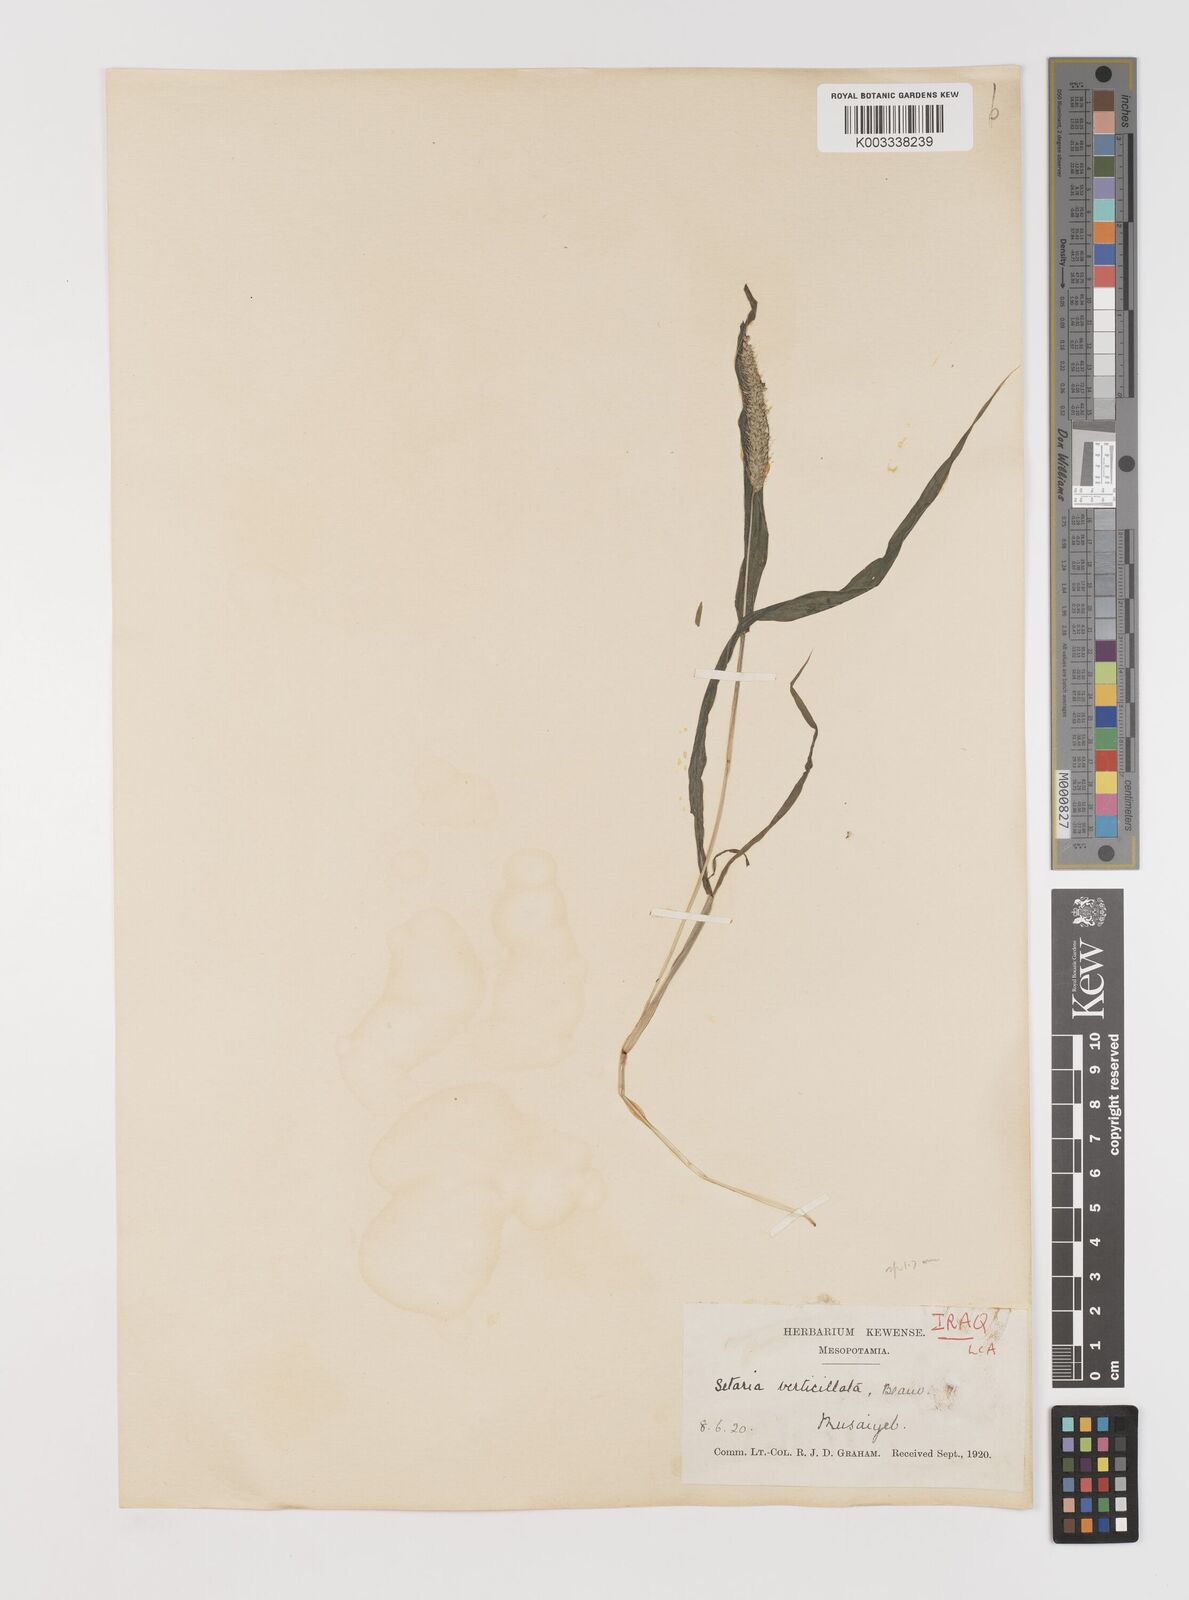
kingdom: Plantae
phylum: Tracheophyta
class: Liliopsida
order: Poales
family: Poaceae
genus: Setaria
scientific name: Setaria verticillata
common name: Hooked bristlegrass
